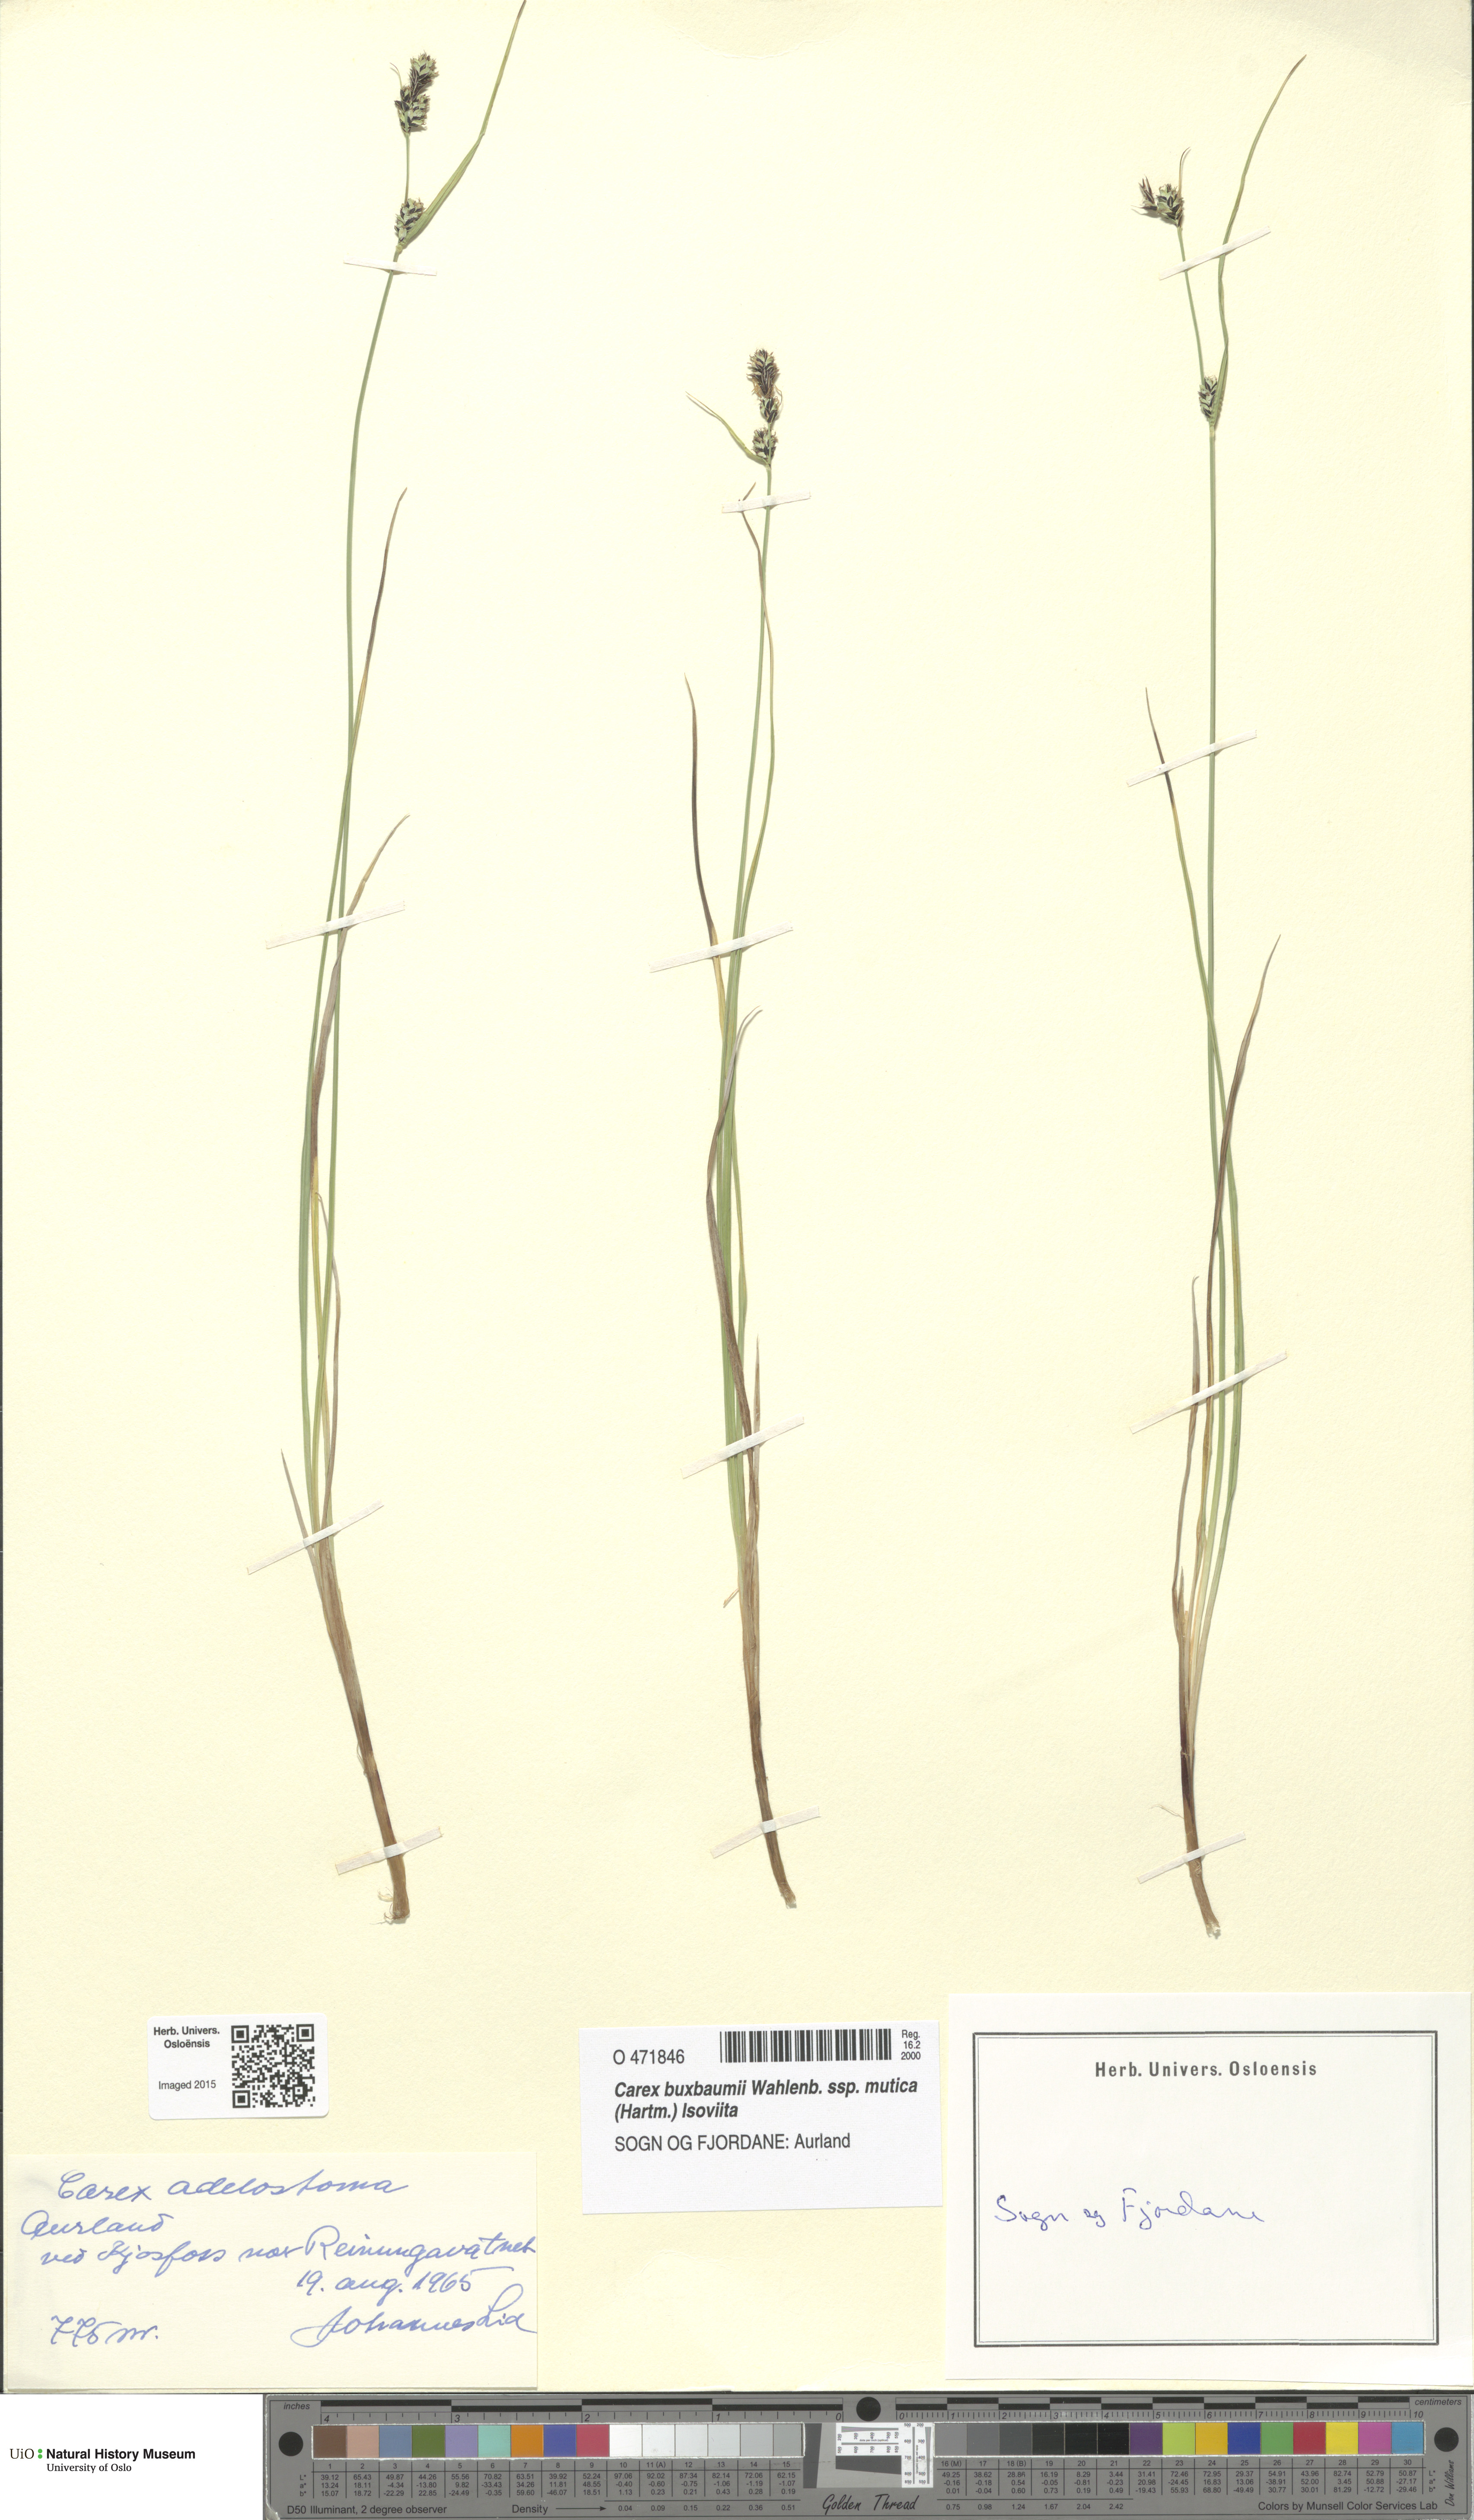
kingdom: Plantae
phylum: Tracheophyta
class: Liliopsida
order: Poales
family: Cyperaceae
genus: Carex
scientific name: Carex adelostoma
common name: Circumpolar sedge
